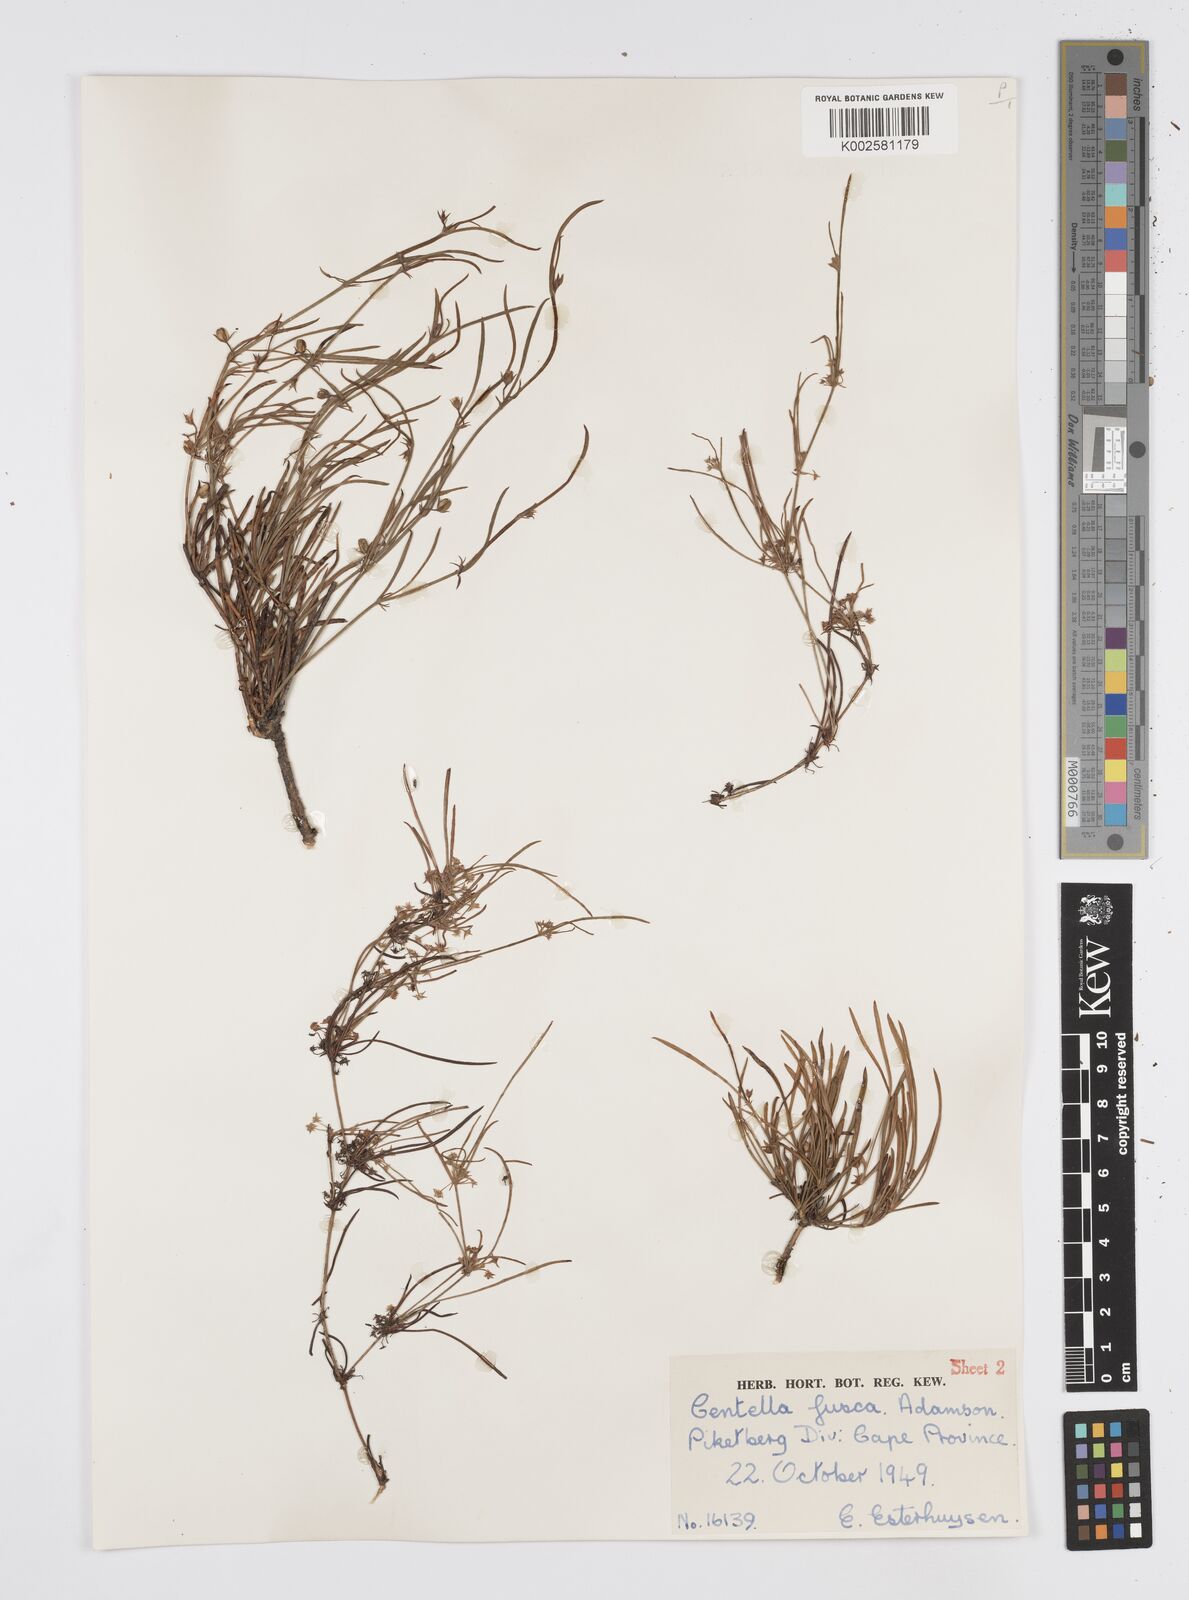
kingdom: Plantae
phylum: Tracheophyta
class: Magnoliopsida
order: Apiales
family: Apiaceae
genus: Centella
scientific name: Centella fusca
